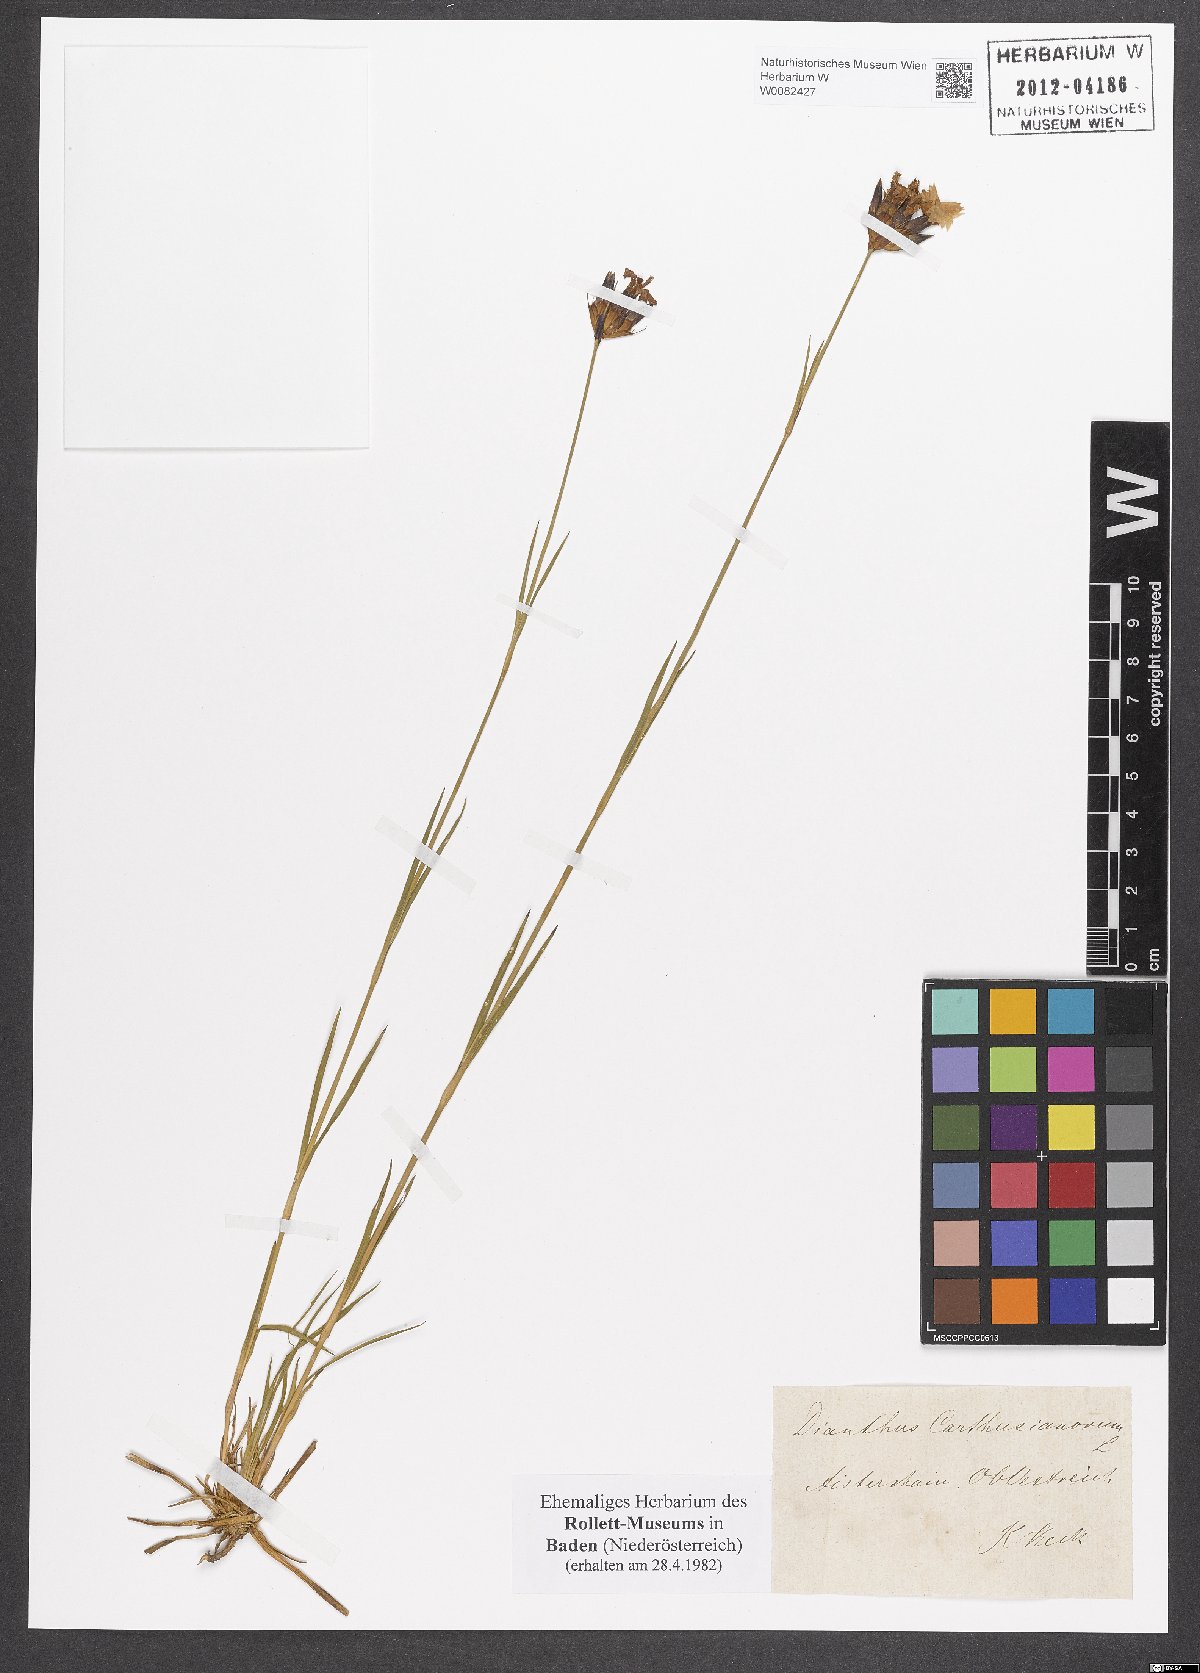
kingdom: Plantae
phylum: Tracheophyta
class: Magnoliopsida
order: Caryophyllales
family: Caryophyllaceae
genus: Dianthus
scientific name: Dianthus carthusianorum
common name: Carthusian pink
